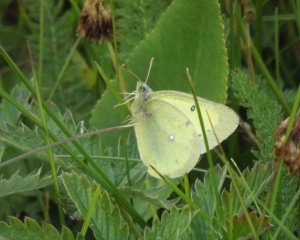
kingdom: Animalia
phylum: Arthropoda
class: Insecta
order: Lepidoptera
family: Pieridae
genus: Colias
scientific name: Colias philodice
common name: Clouded Sulphur
